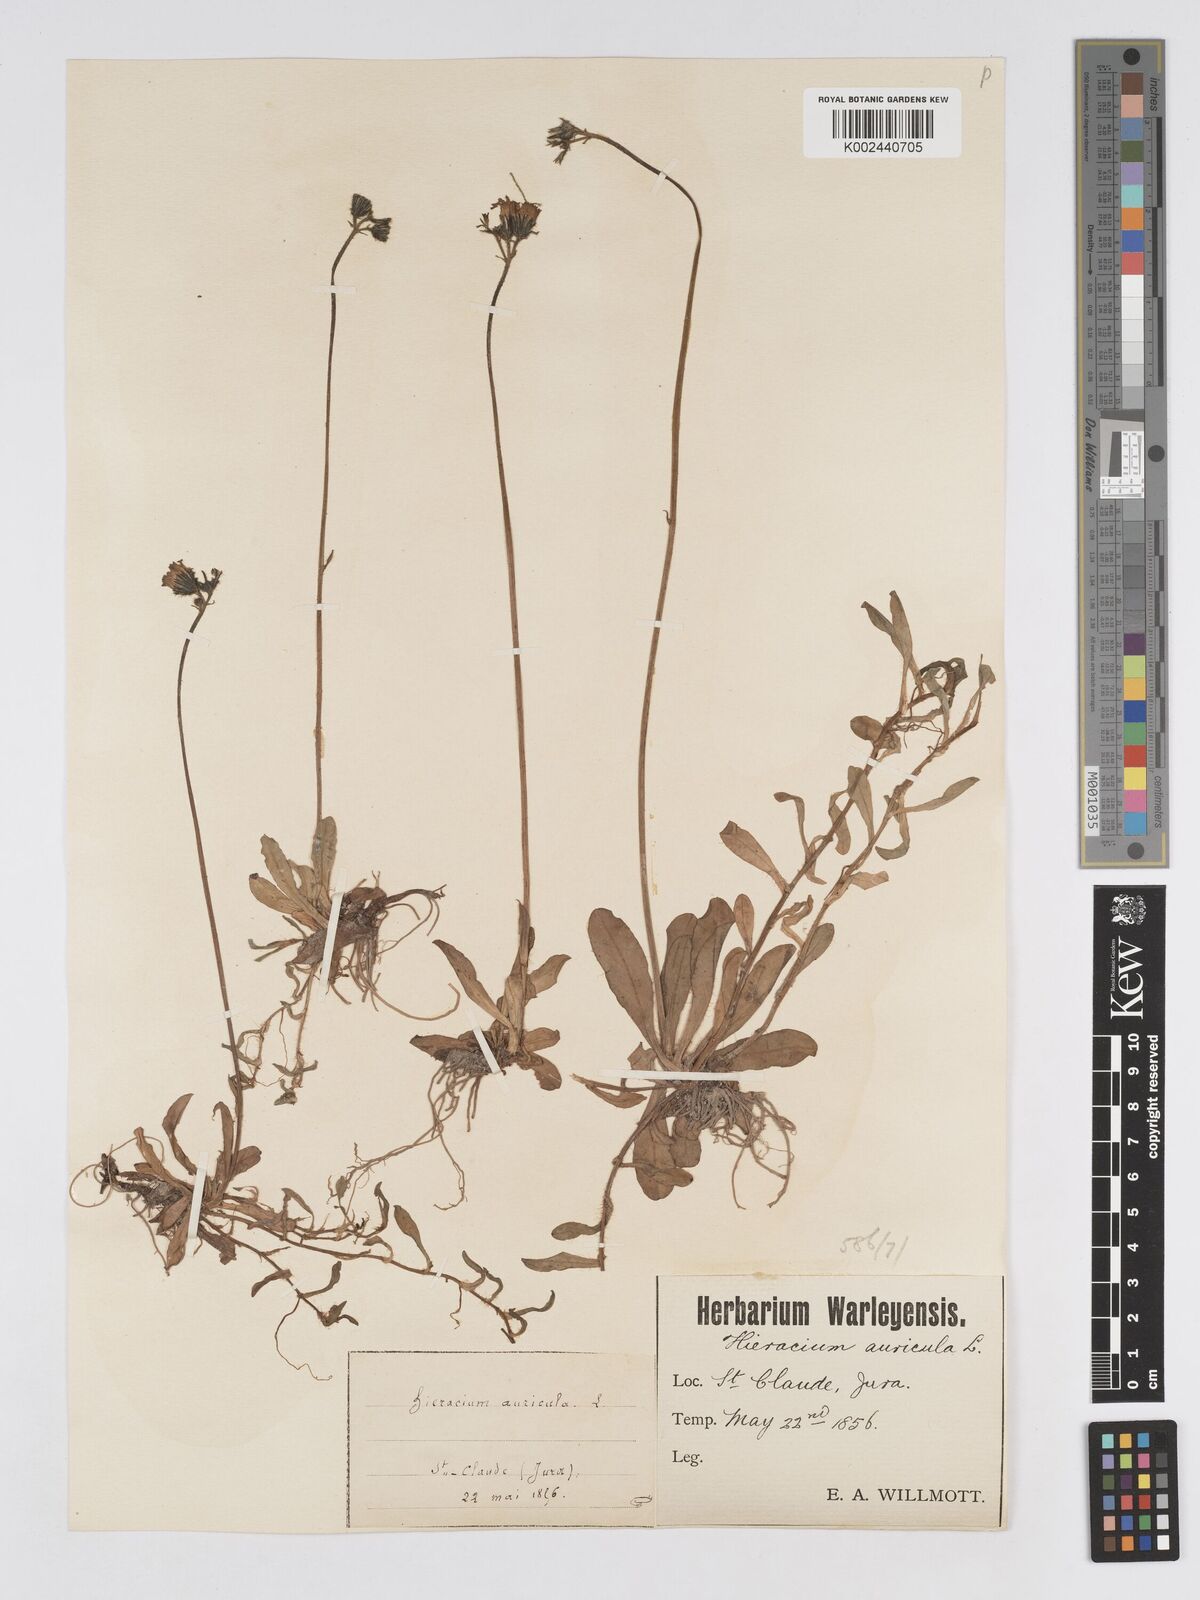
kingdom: Plantae
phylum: Tracheophyta
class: Magnoliopsida
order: Asterales
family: Asteraceae
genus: Pilosella
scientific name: Pilosella floribunda
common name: Glaucous hawkweed
